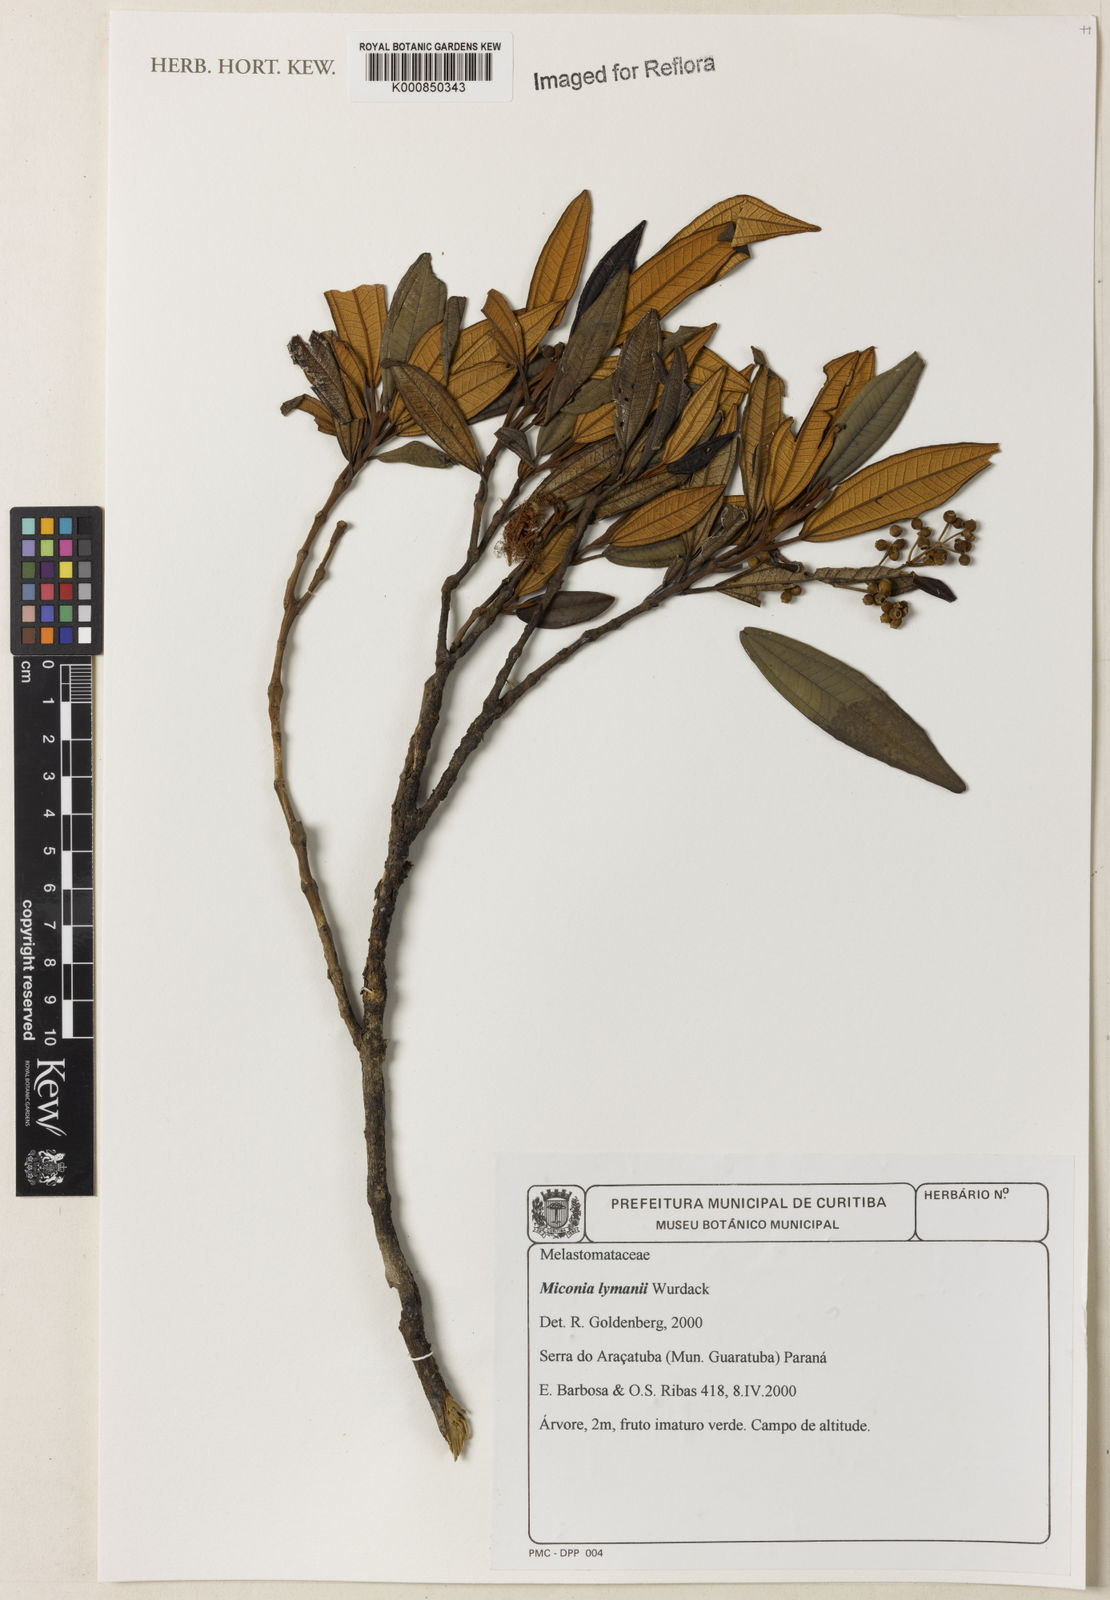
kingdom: Plantae
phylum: Tracheophyta
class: Magnoliopsida
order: Myrtales
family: Melastomataceae
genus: Miconia
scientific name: Miconia lymanii
